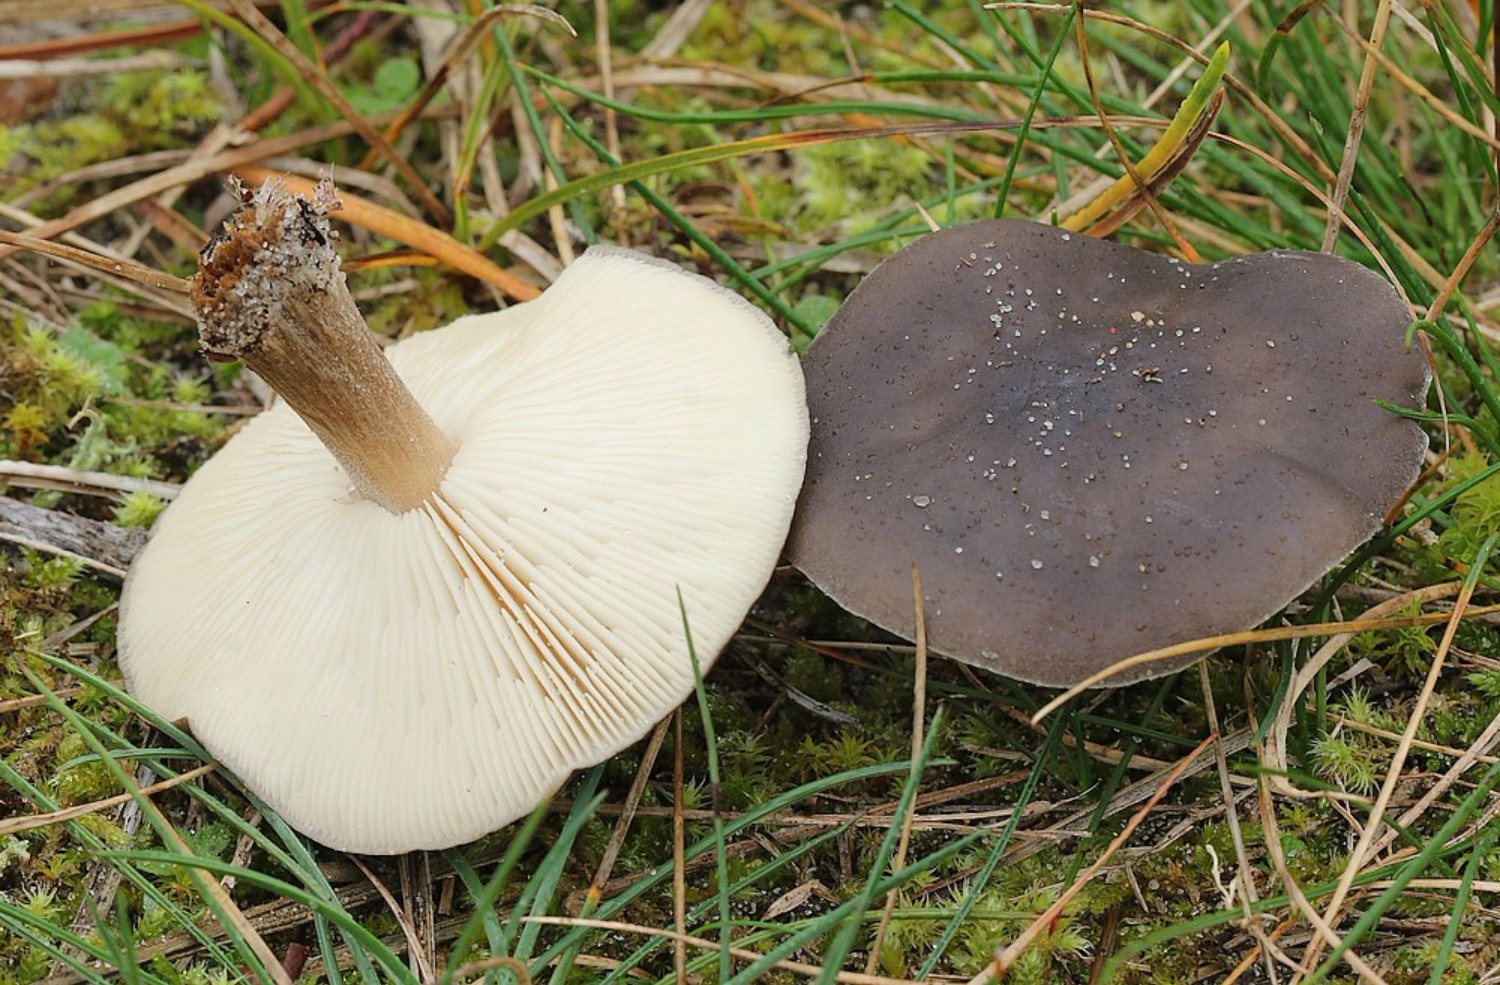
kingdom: Fungi
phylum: Basidiomycota
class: Agaricomycetes
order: Agaricales
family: Tricholomataceae
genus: Melanoleuca
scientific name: Melanoleuca
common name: munkehat
